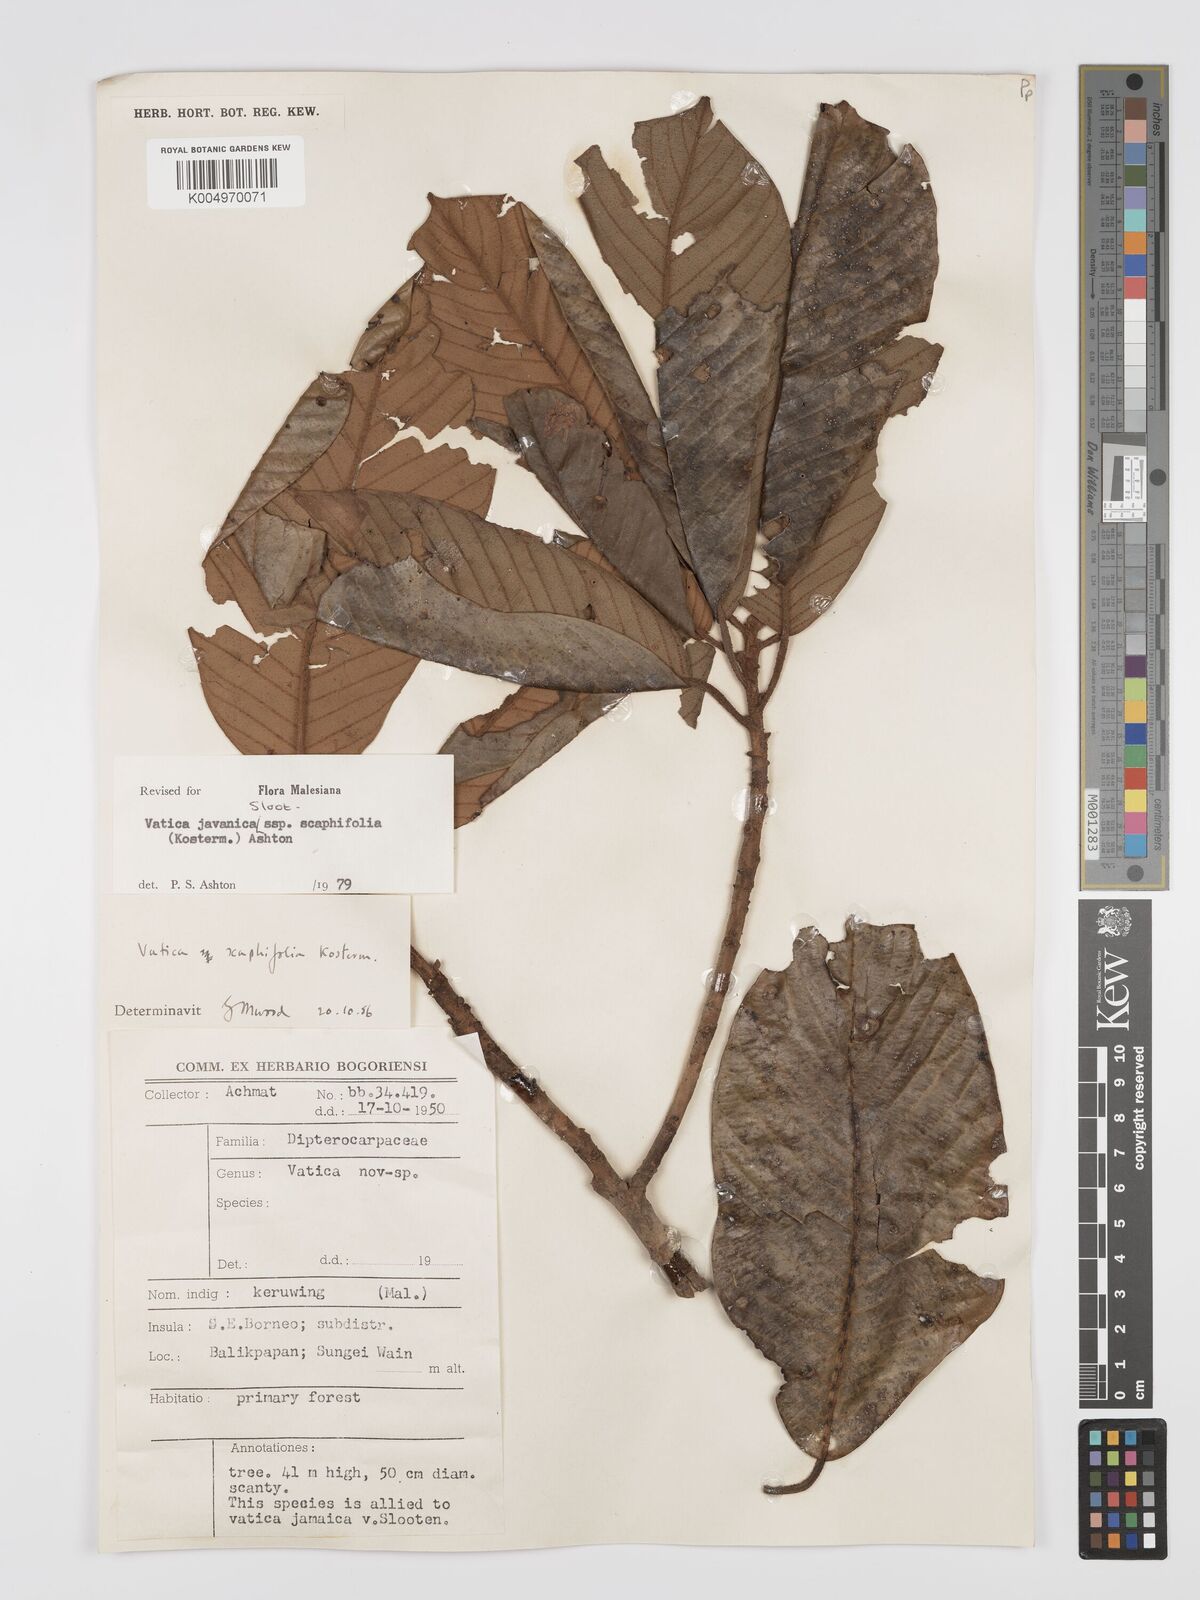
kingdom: Plantae
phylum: Tracheophyta
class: Magnoliopsida
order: Malvales
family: Dipterocarpaceae
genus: Vatica
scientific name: Vatica javanica
